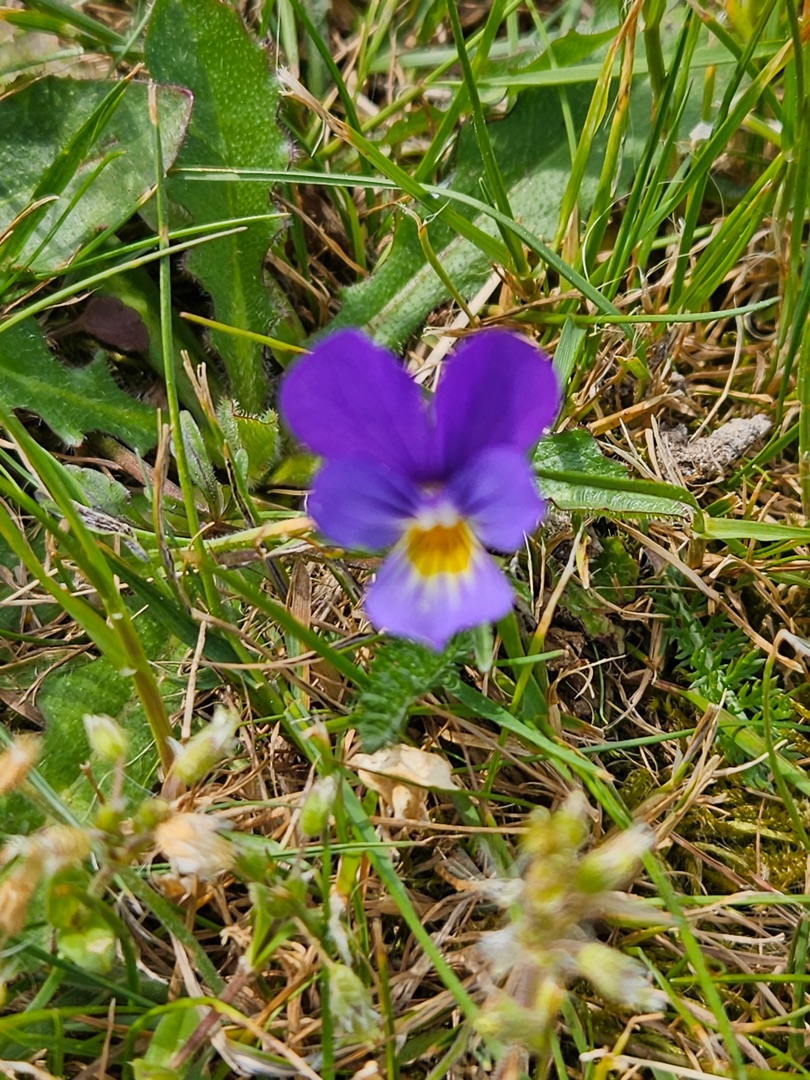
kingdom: Plantae
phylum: Tracheophyta
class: Magnoliopsida
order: Malpighiales
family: Violaceae
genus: Viola
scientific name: Viola tricolor
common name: Stedmoderblomst
